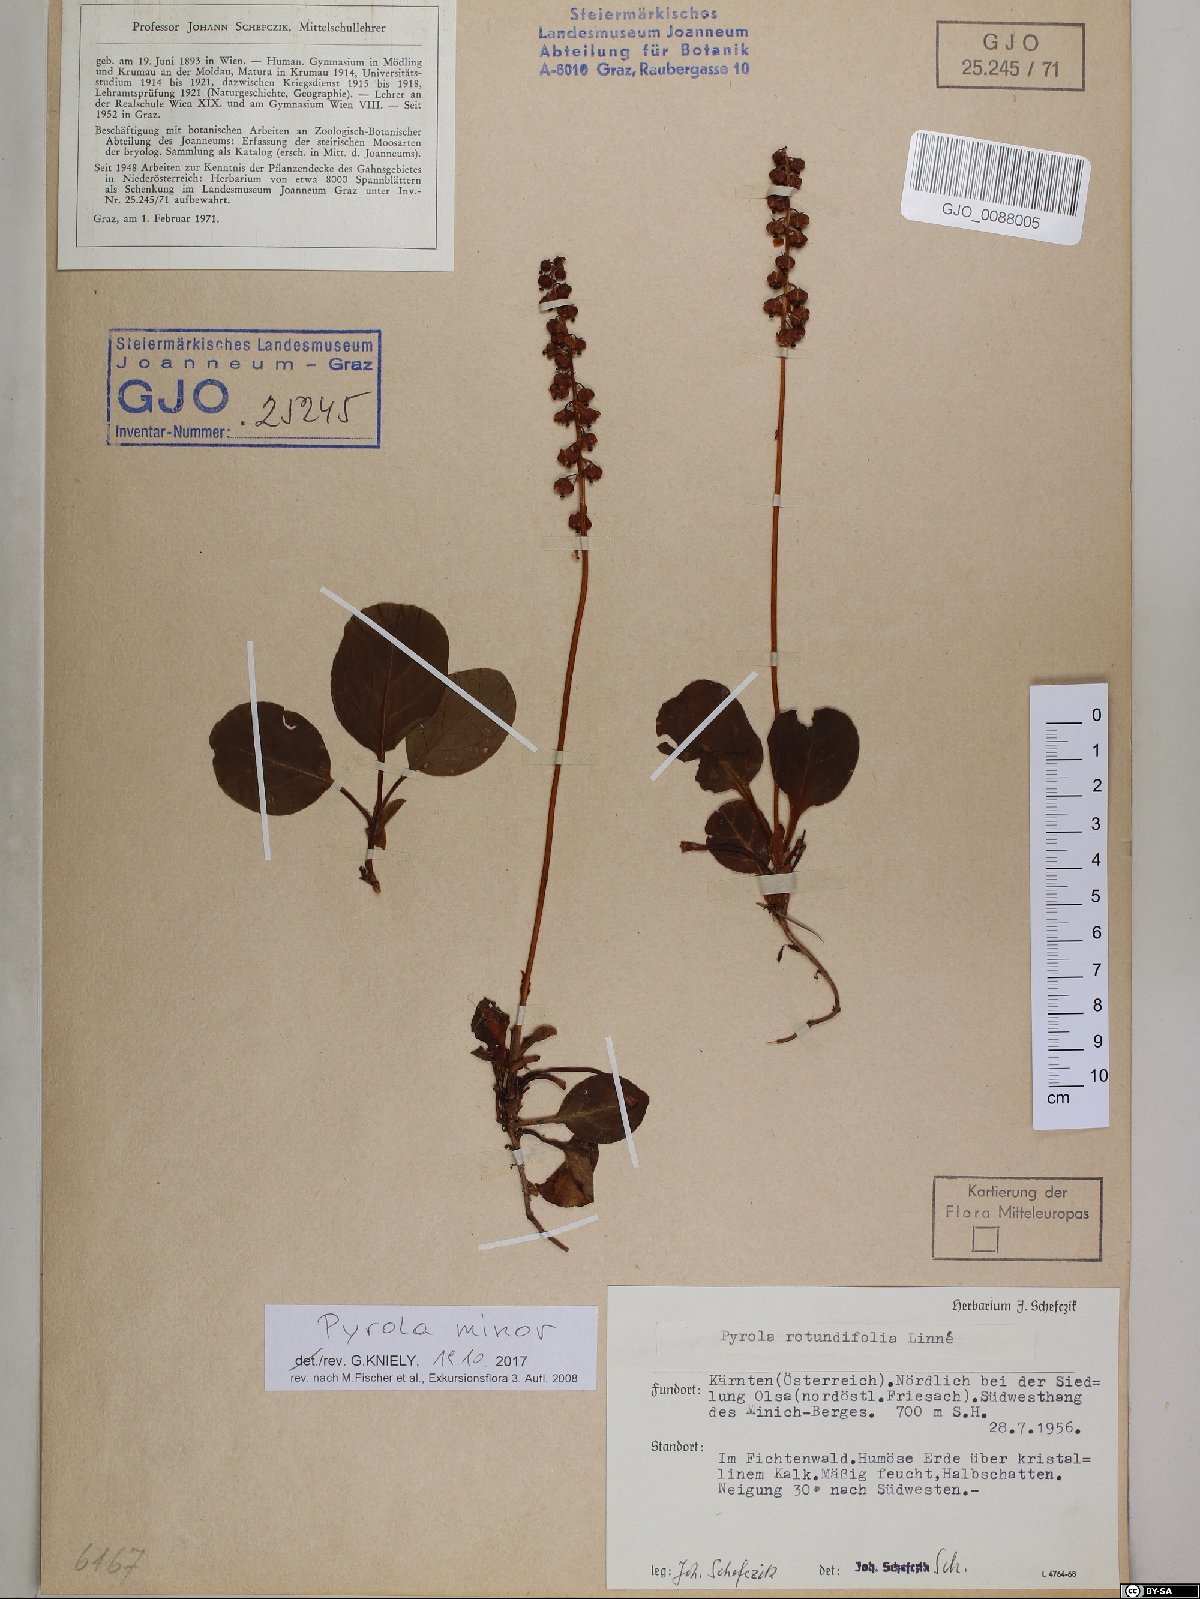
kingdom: Plantae
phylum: Tracheophyta
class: Magnoliopsida
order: Ericales
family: Ericaceae
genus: Pyrola
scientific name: Pyrola minor
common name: Common wintergreen
